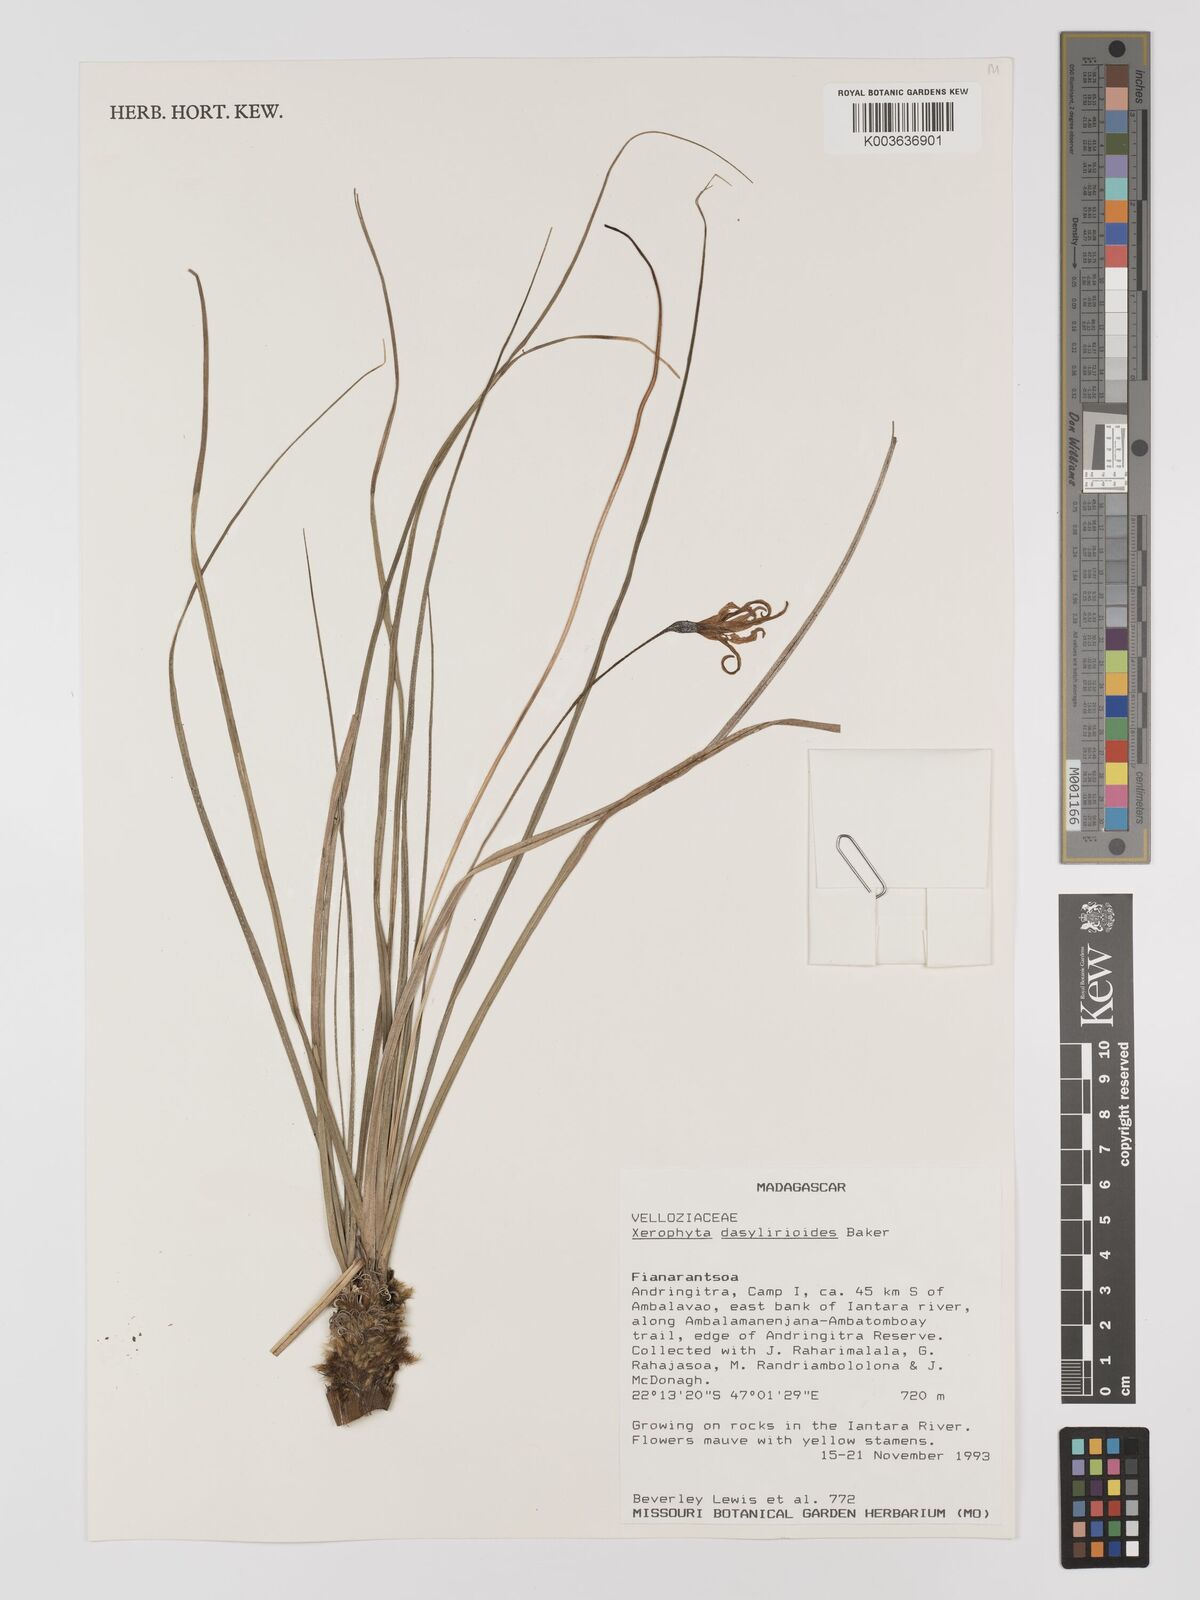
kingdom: Plantae
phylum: Tracheophyta
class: Liliopsida
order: Pandanales
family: Velloziaceae
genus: Xerophyta
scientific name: Xerophyta dasylirioides
